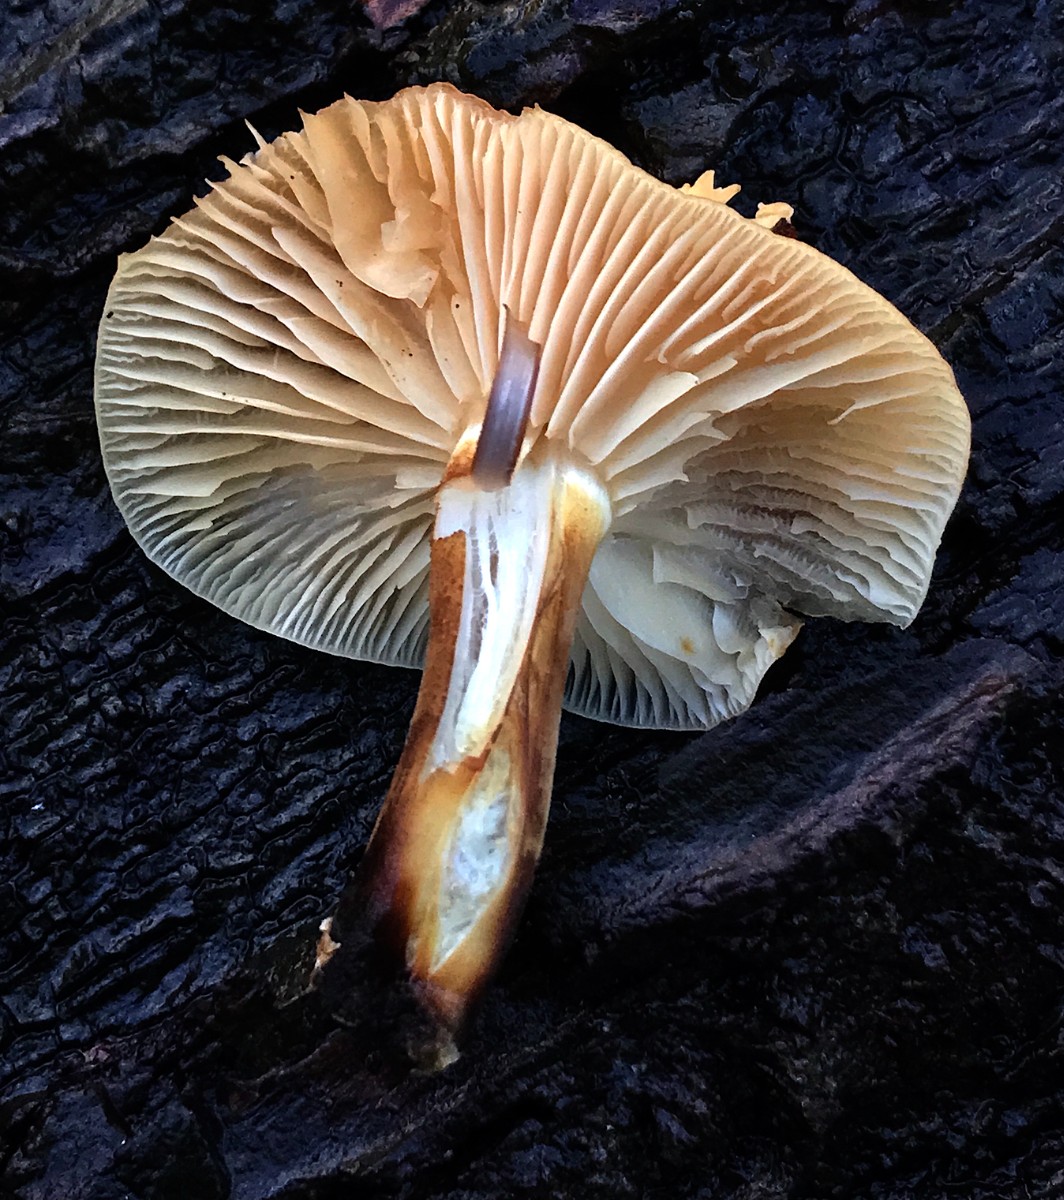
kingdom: Fungi
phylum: Basidiomycota
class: Agaricomycetes
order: Agaricales
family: Physalacriaceae
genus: Flammulina
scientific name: Flammulina velutipes
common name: gul fløjlsfod
